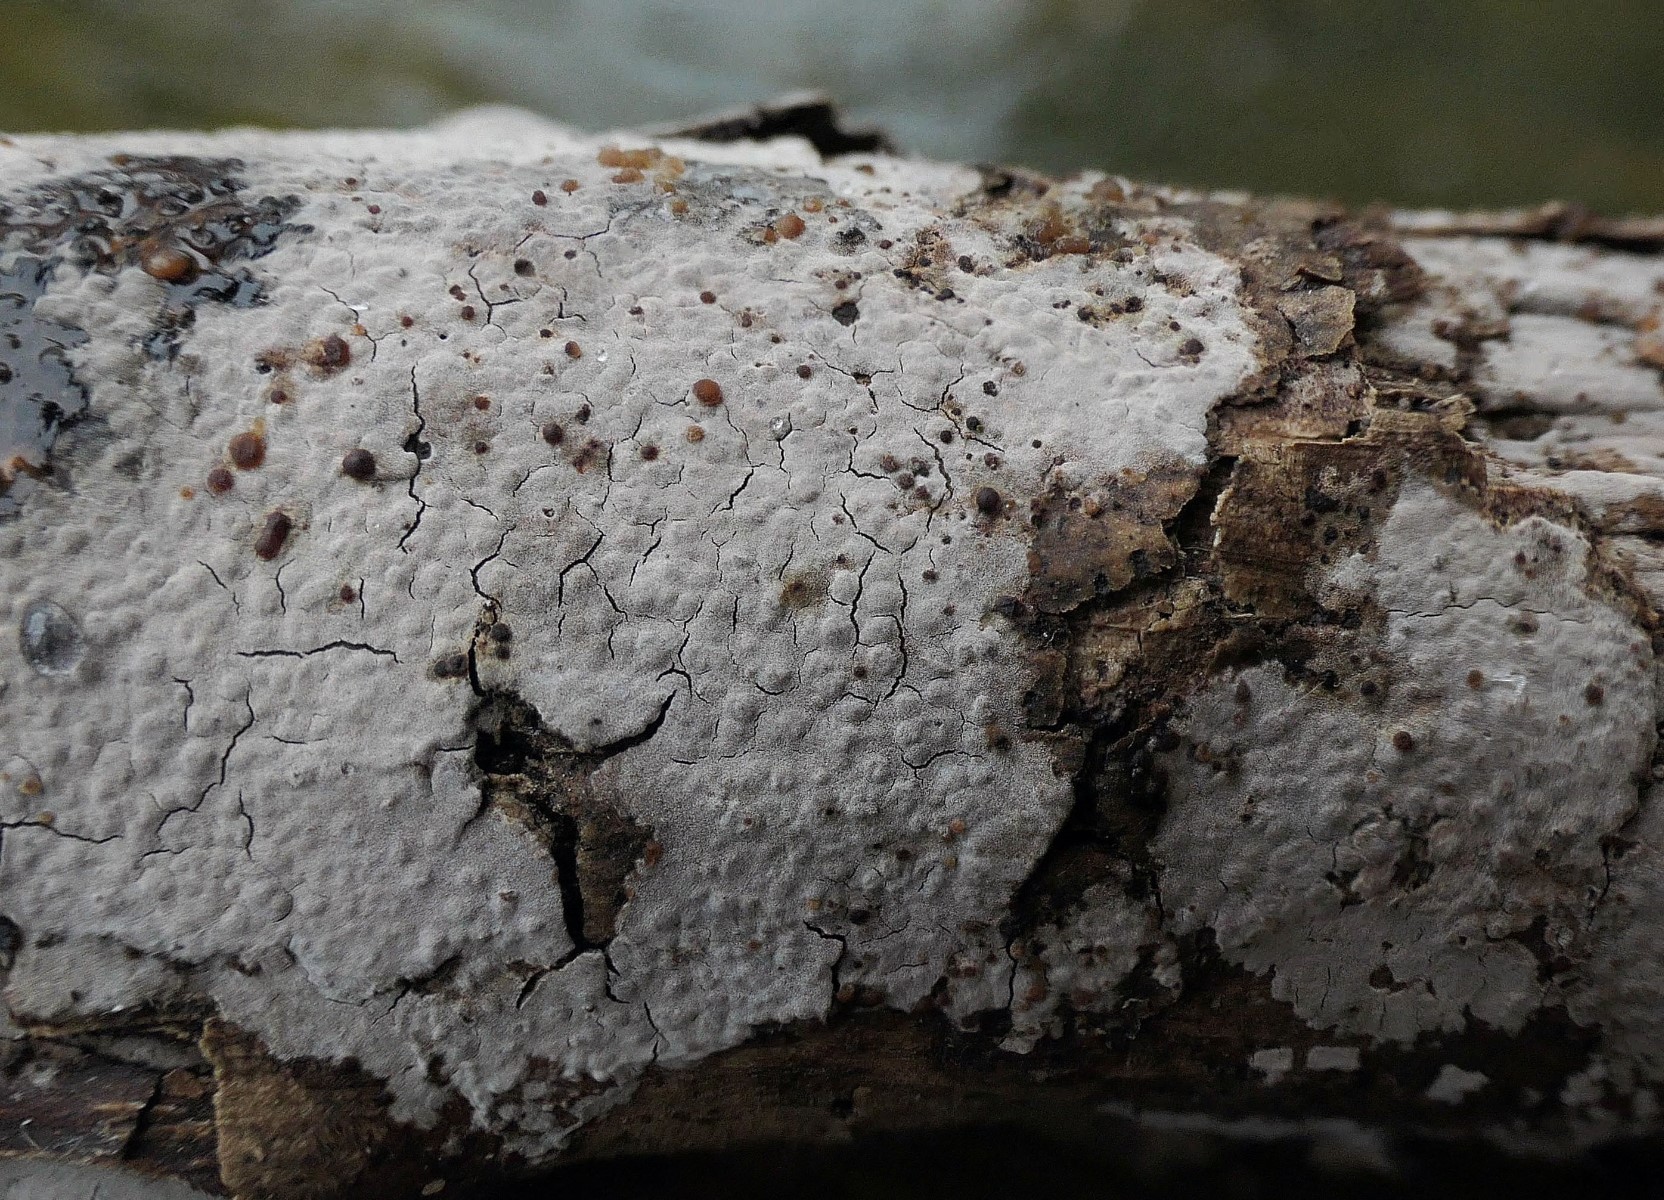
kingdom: Fungi
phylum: Basidiomycota
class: Tremellomycetes
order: Tremellales
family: Tremellaceae
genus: Tremella
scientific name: Tremella versicolor
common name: voksskind-bævresvamp
